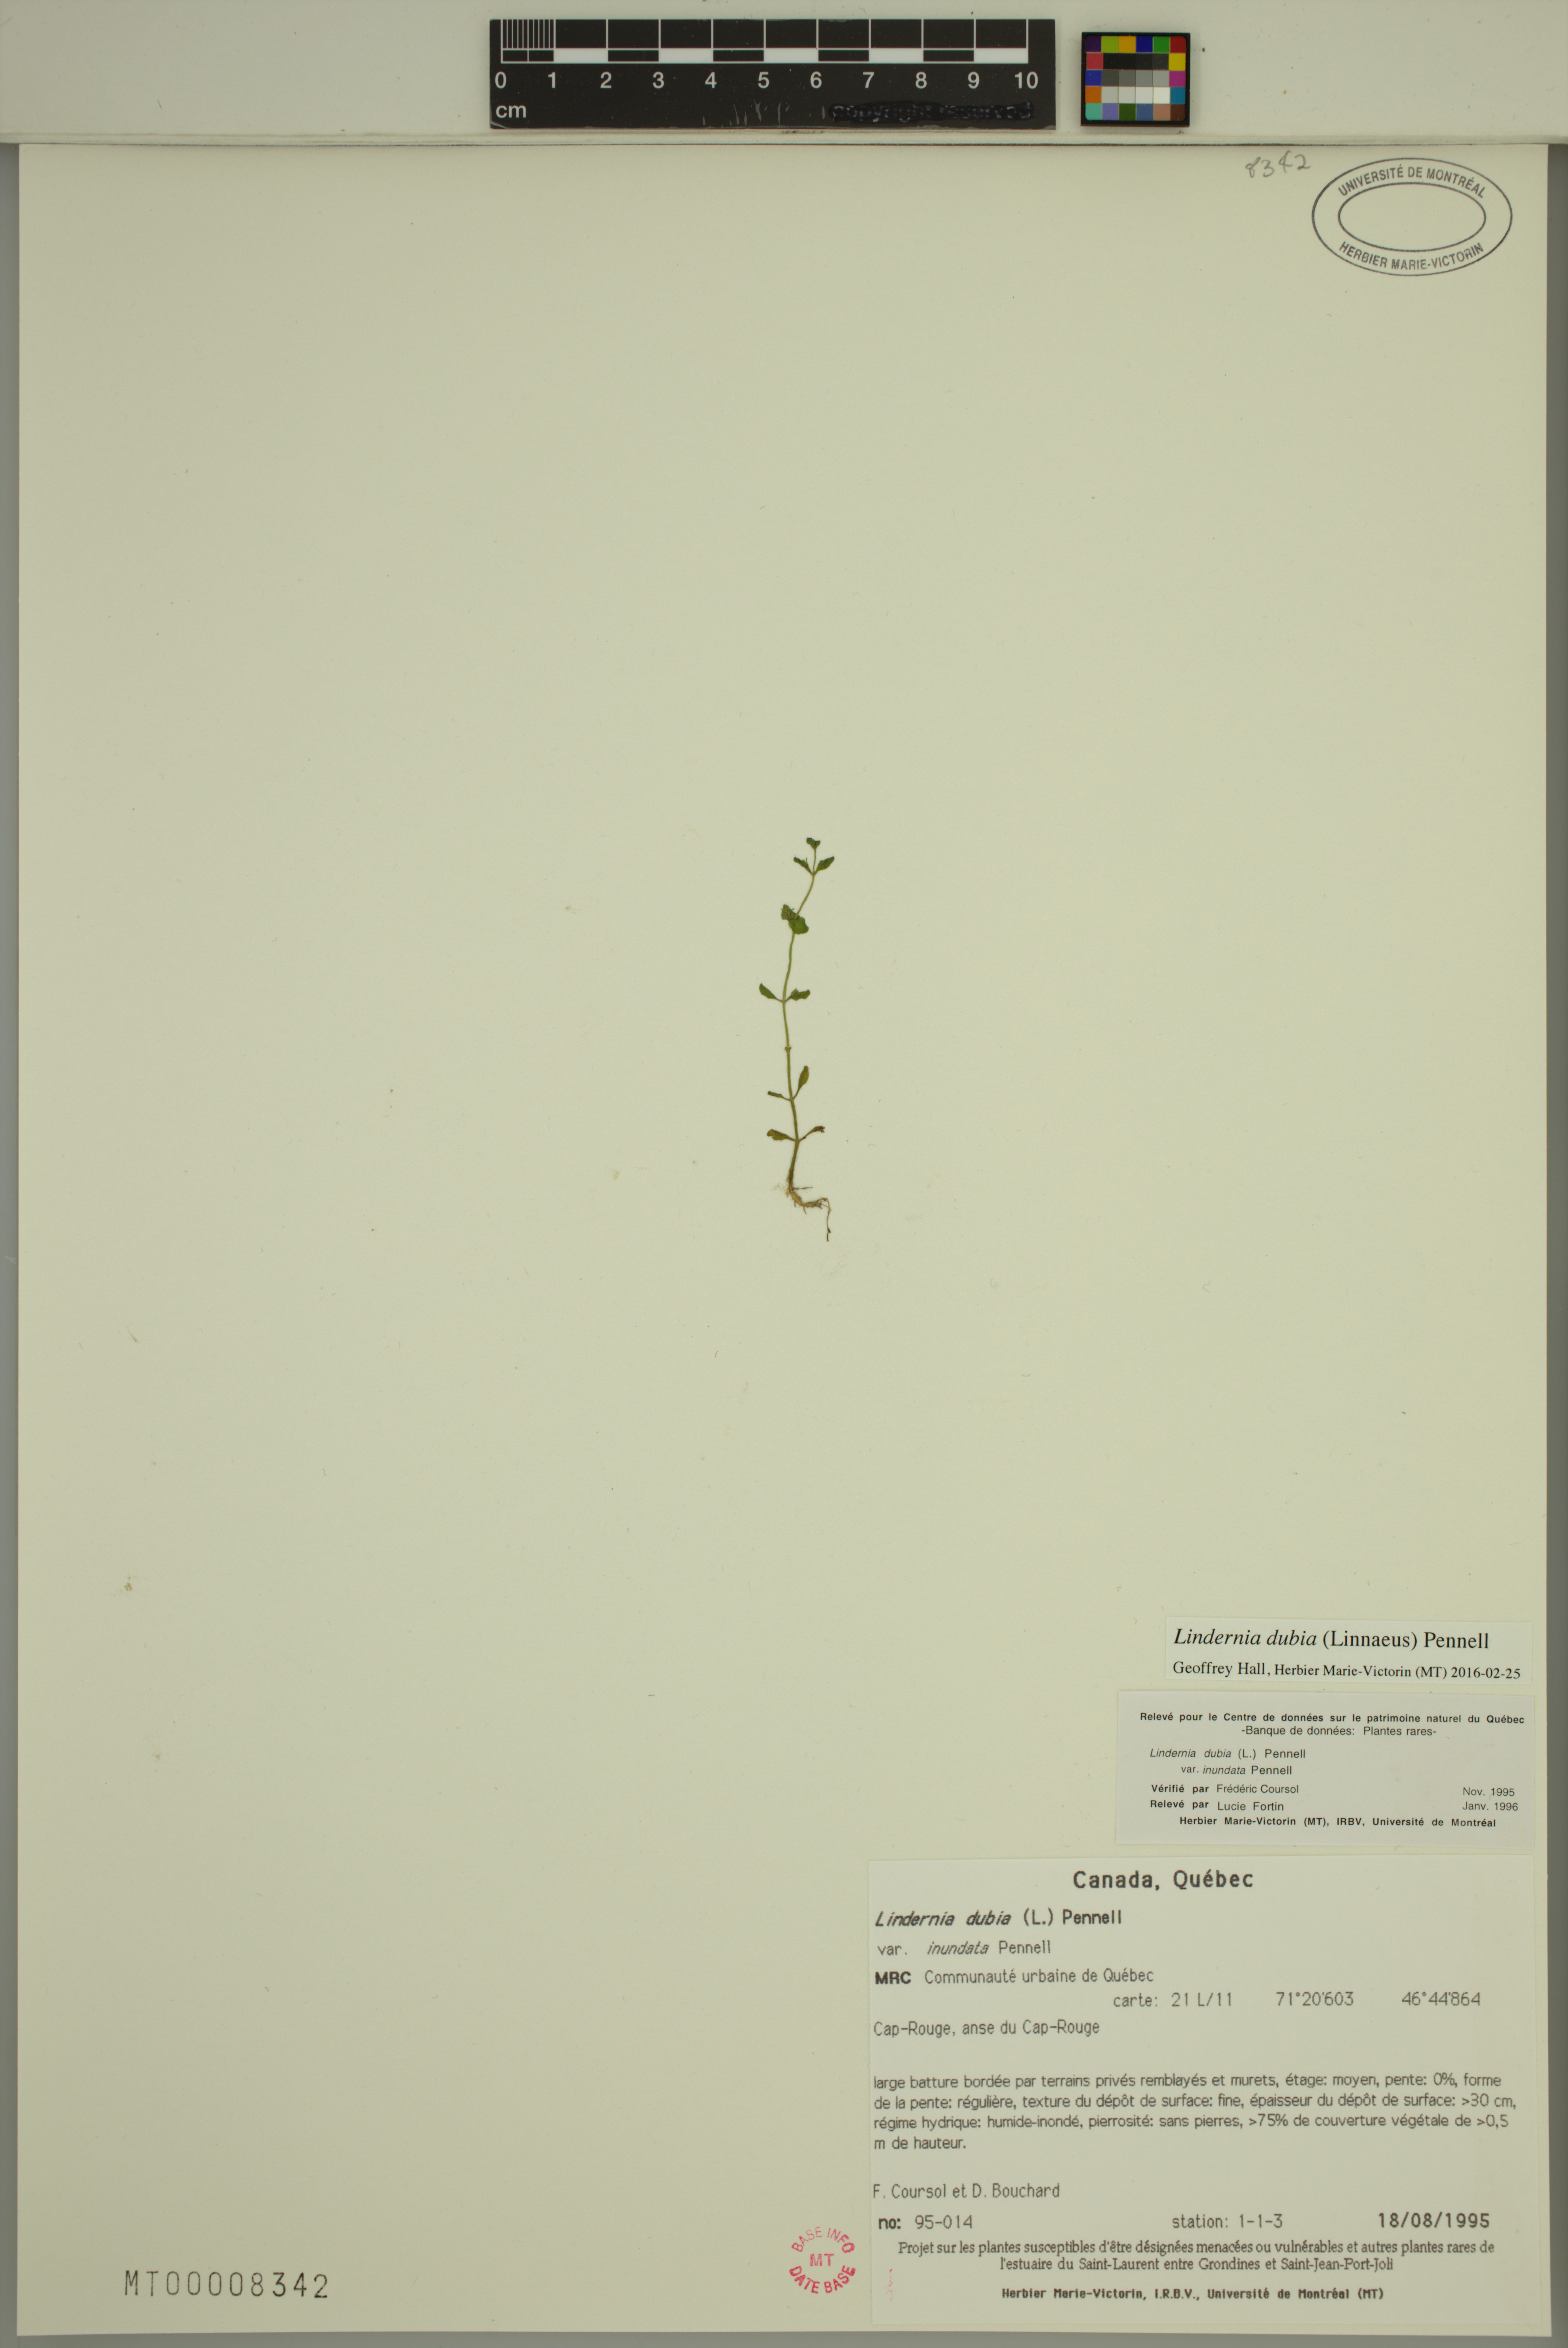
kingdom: Plantae
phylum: Tracheophyta
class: Magnoliopsida
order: Lamiales
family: Linderniaceae
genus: Lindernia
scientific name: Lindernia dubia
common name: Annual false pimpernel
